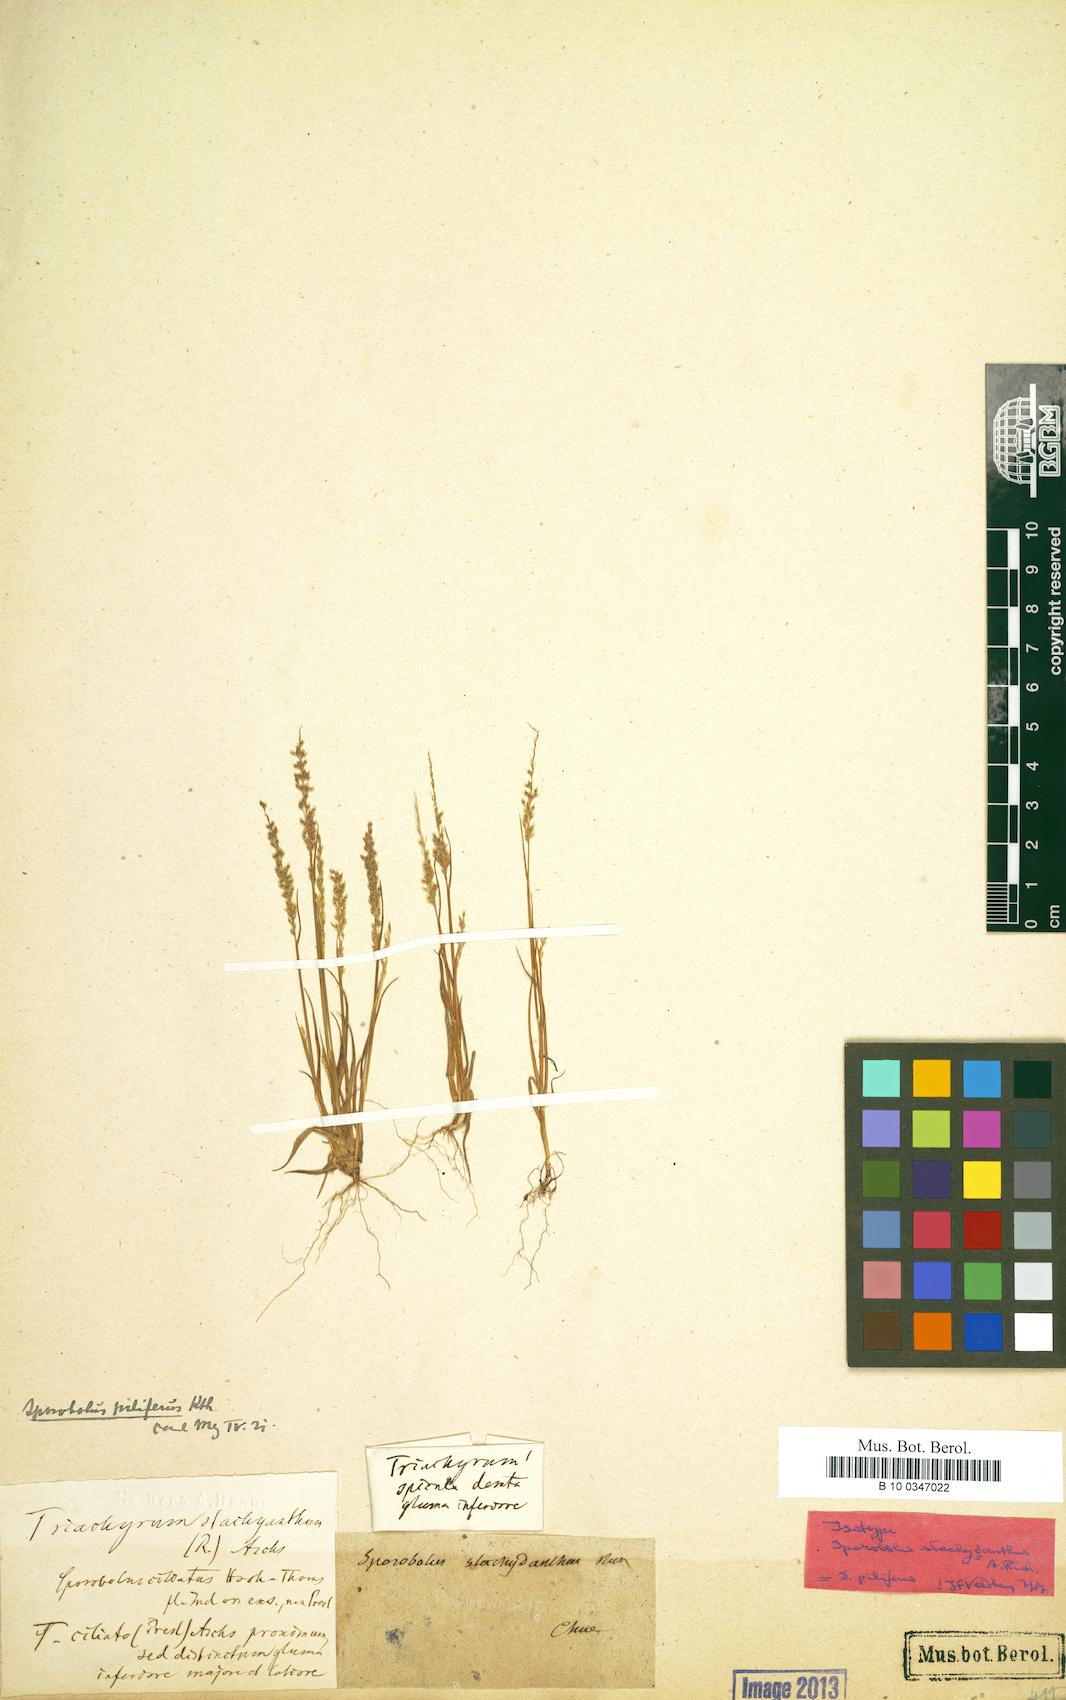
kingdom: Plantae
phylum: Tracheophyta
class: Liliopsida
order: Poales
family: Poaceae
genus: Sporobolus
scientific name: Sporobolus pilifer
